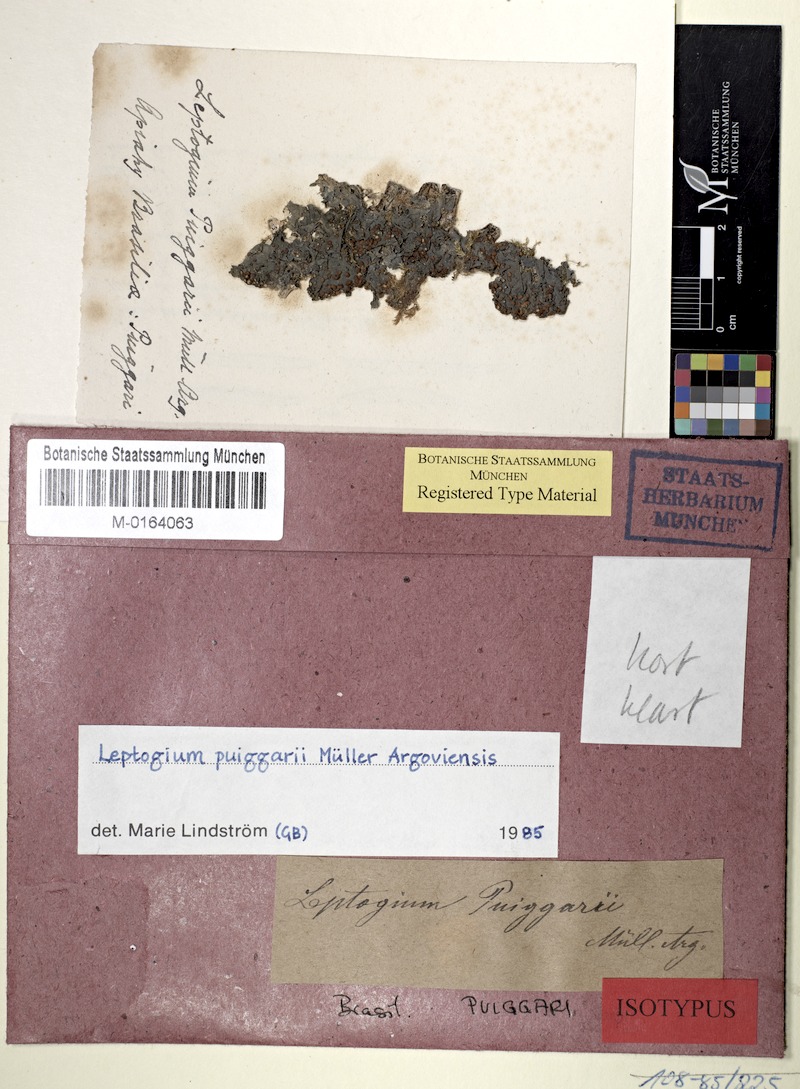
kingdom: Fungi
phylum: Ascomycota
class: Lecanoromycetes
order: Peltigerales
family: Collemataceae
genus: Leptogium
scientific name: Leptogium
